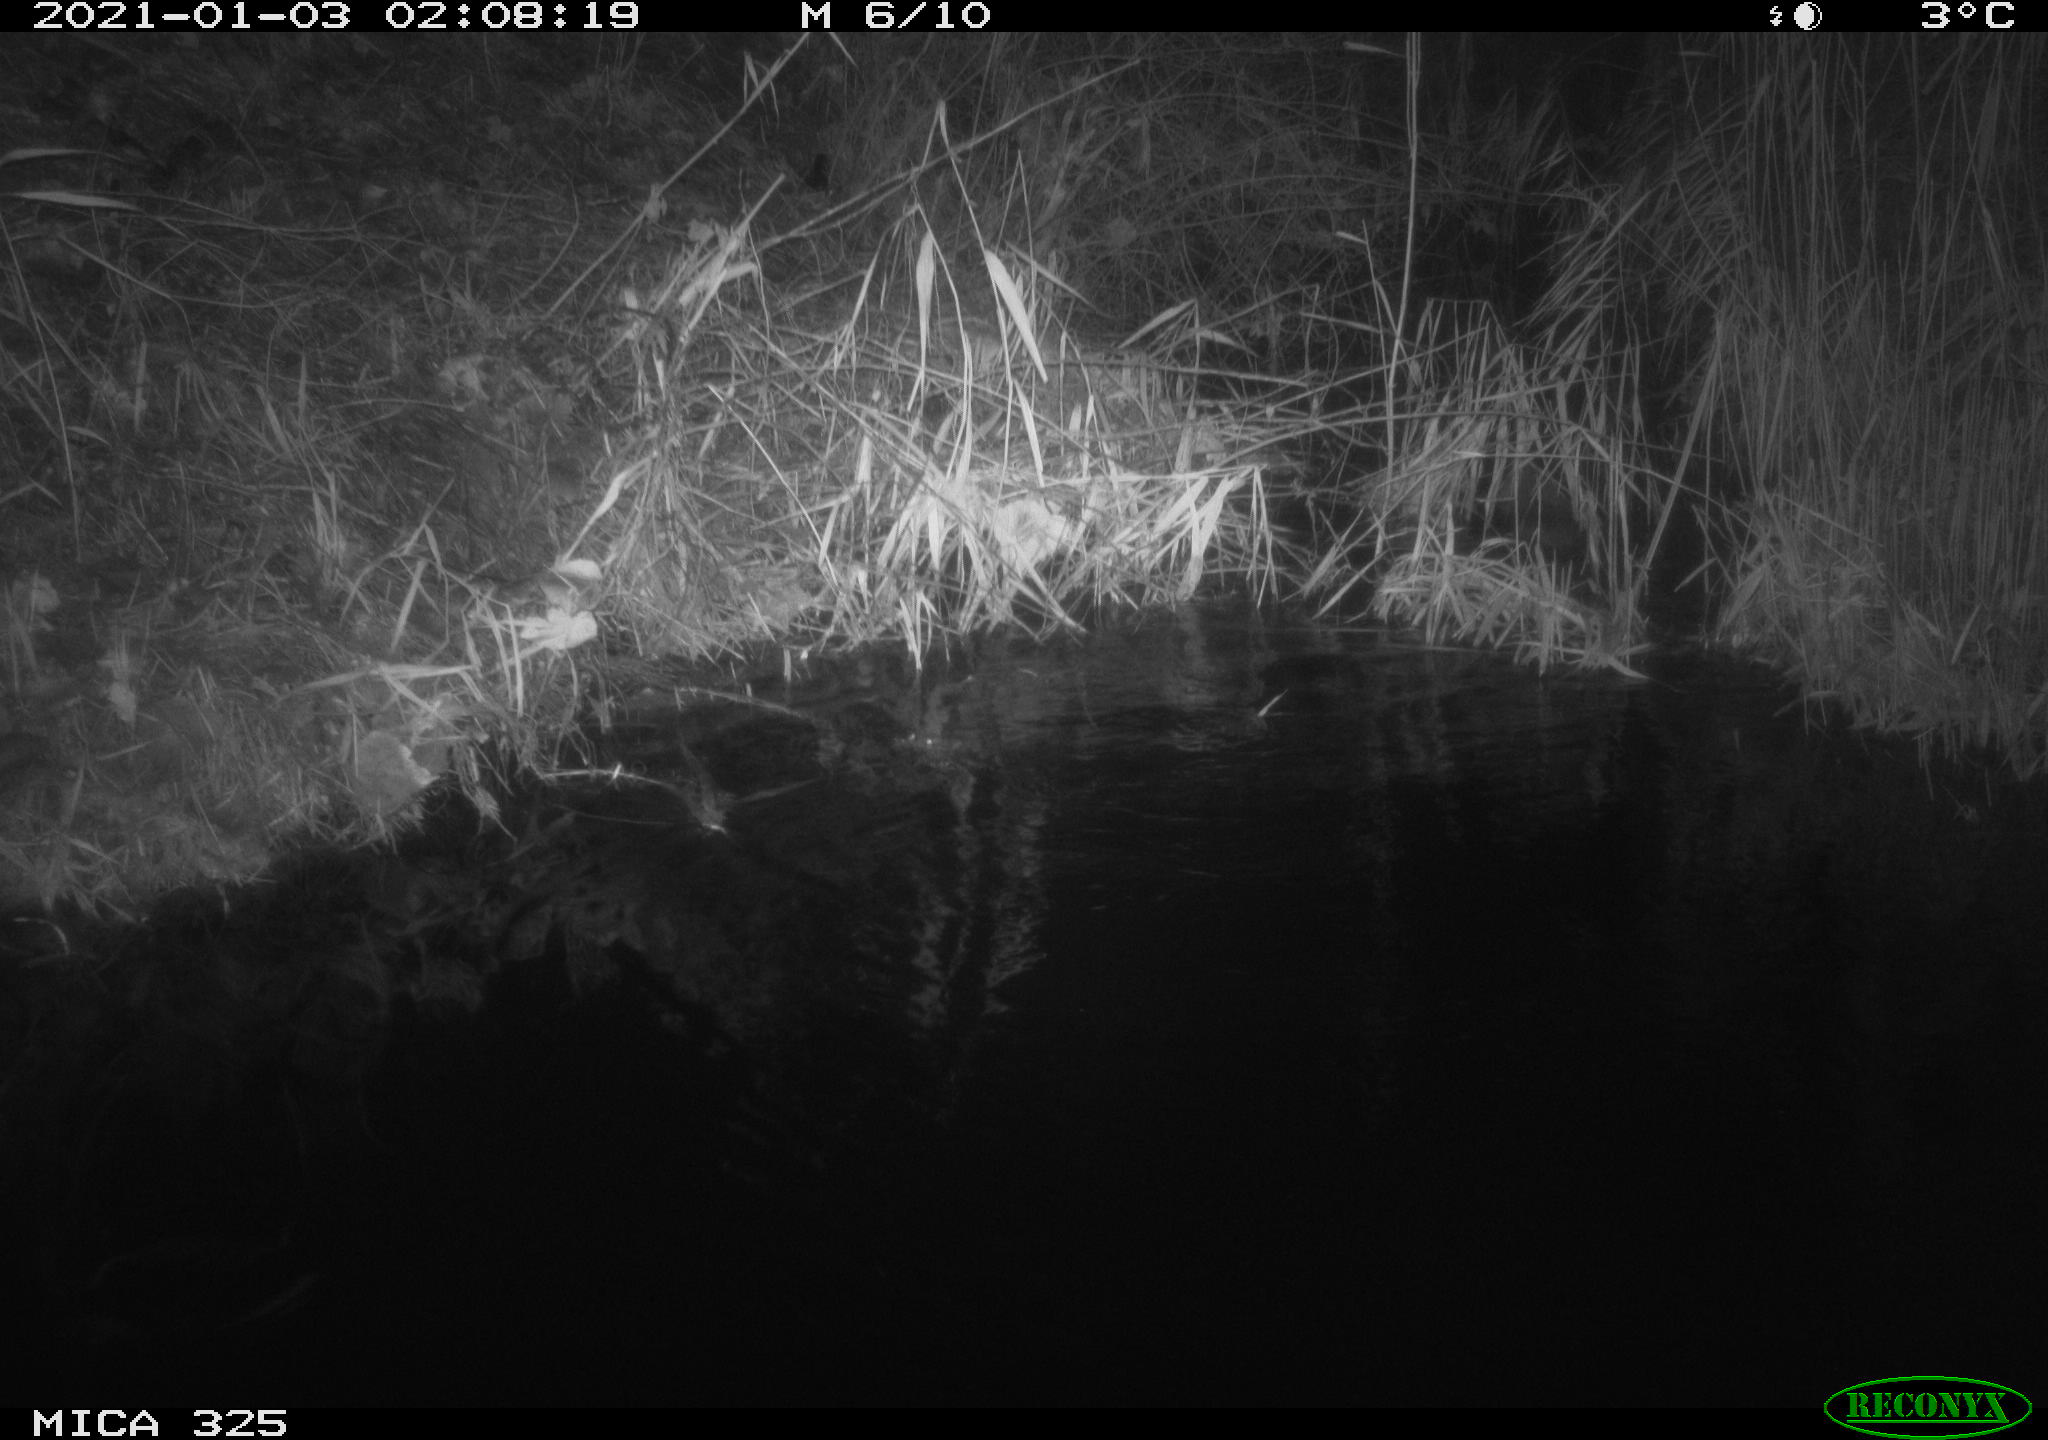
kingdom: Animalia
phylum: Chordata
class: Mammalia
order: Rodentia
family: Cricetidae
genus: Ondatra
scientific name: Ondatra zibethicus
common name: Muskrat
